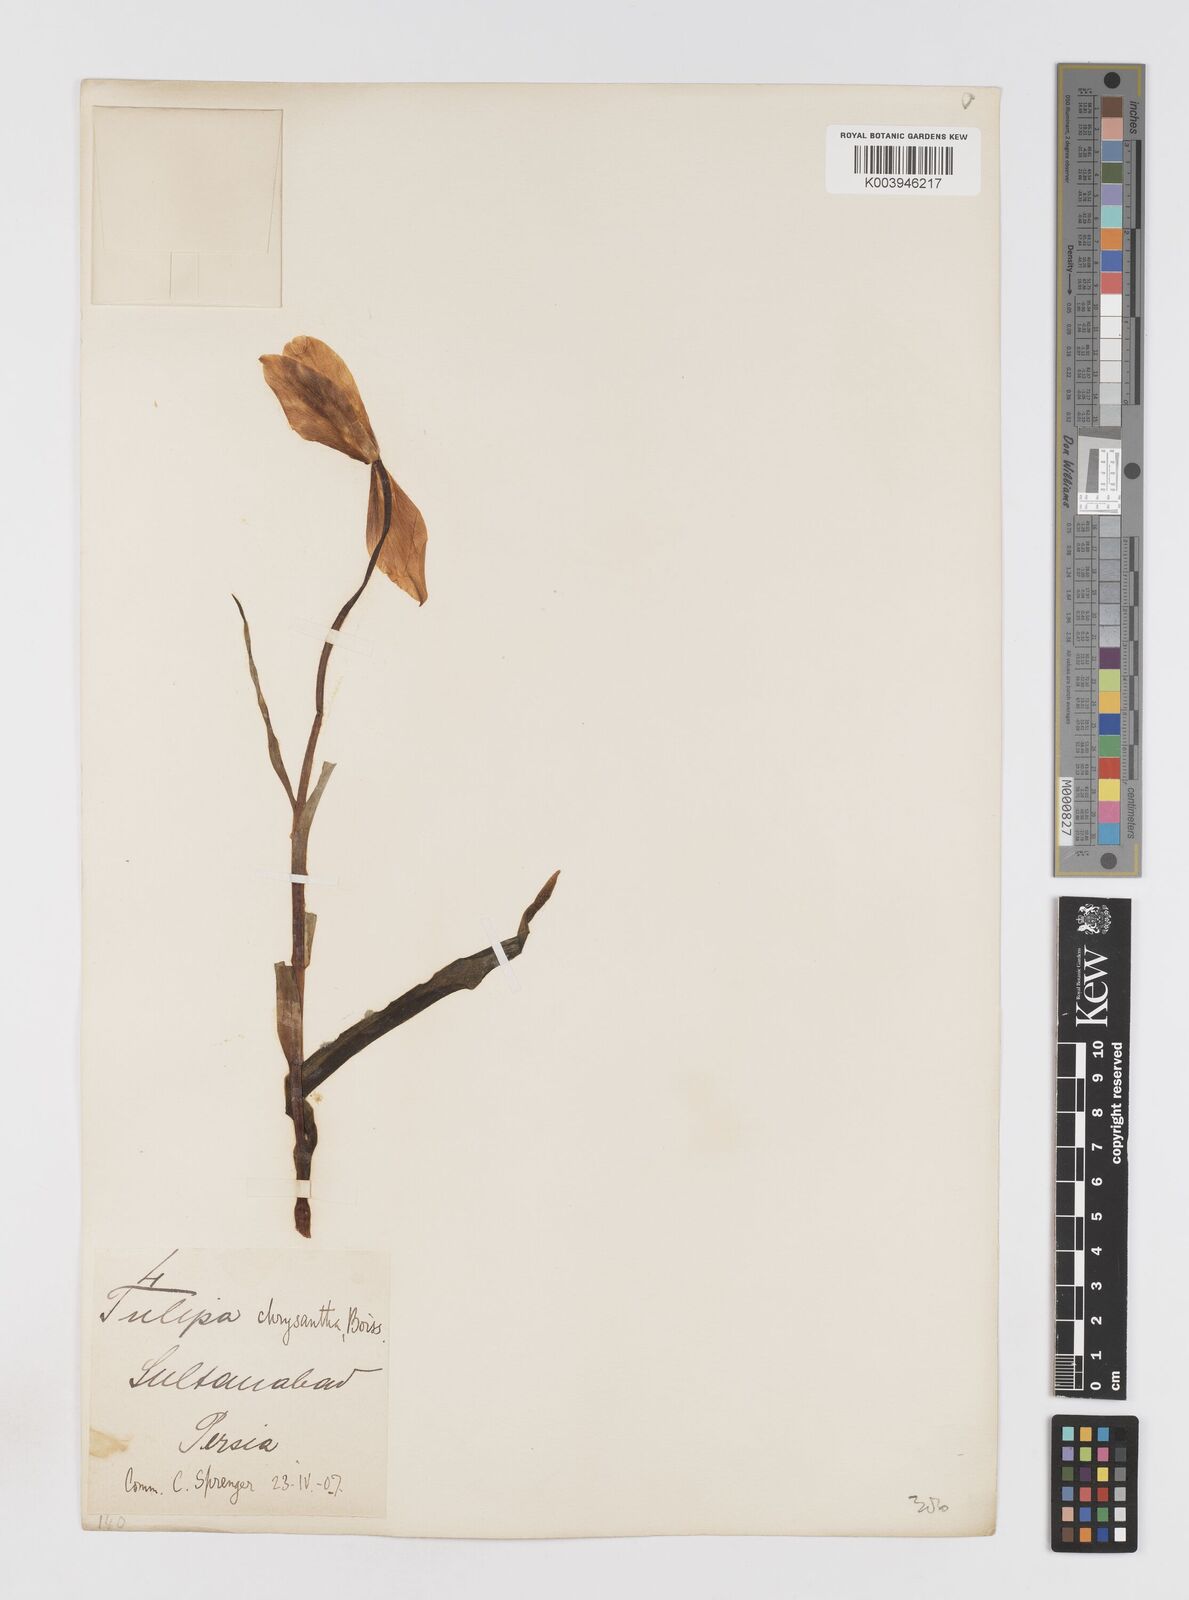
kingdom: Plantae
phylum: Tracheophyta
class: Liliopsida
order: Liliales
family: Liliaceae
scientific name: Liliaceae
